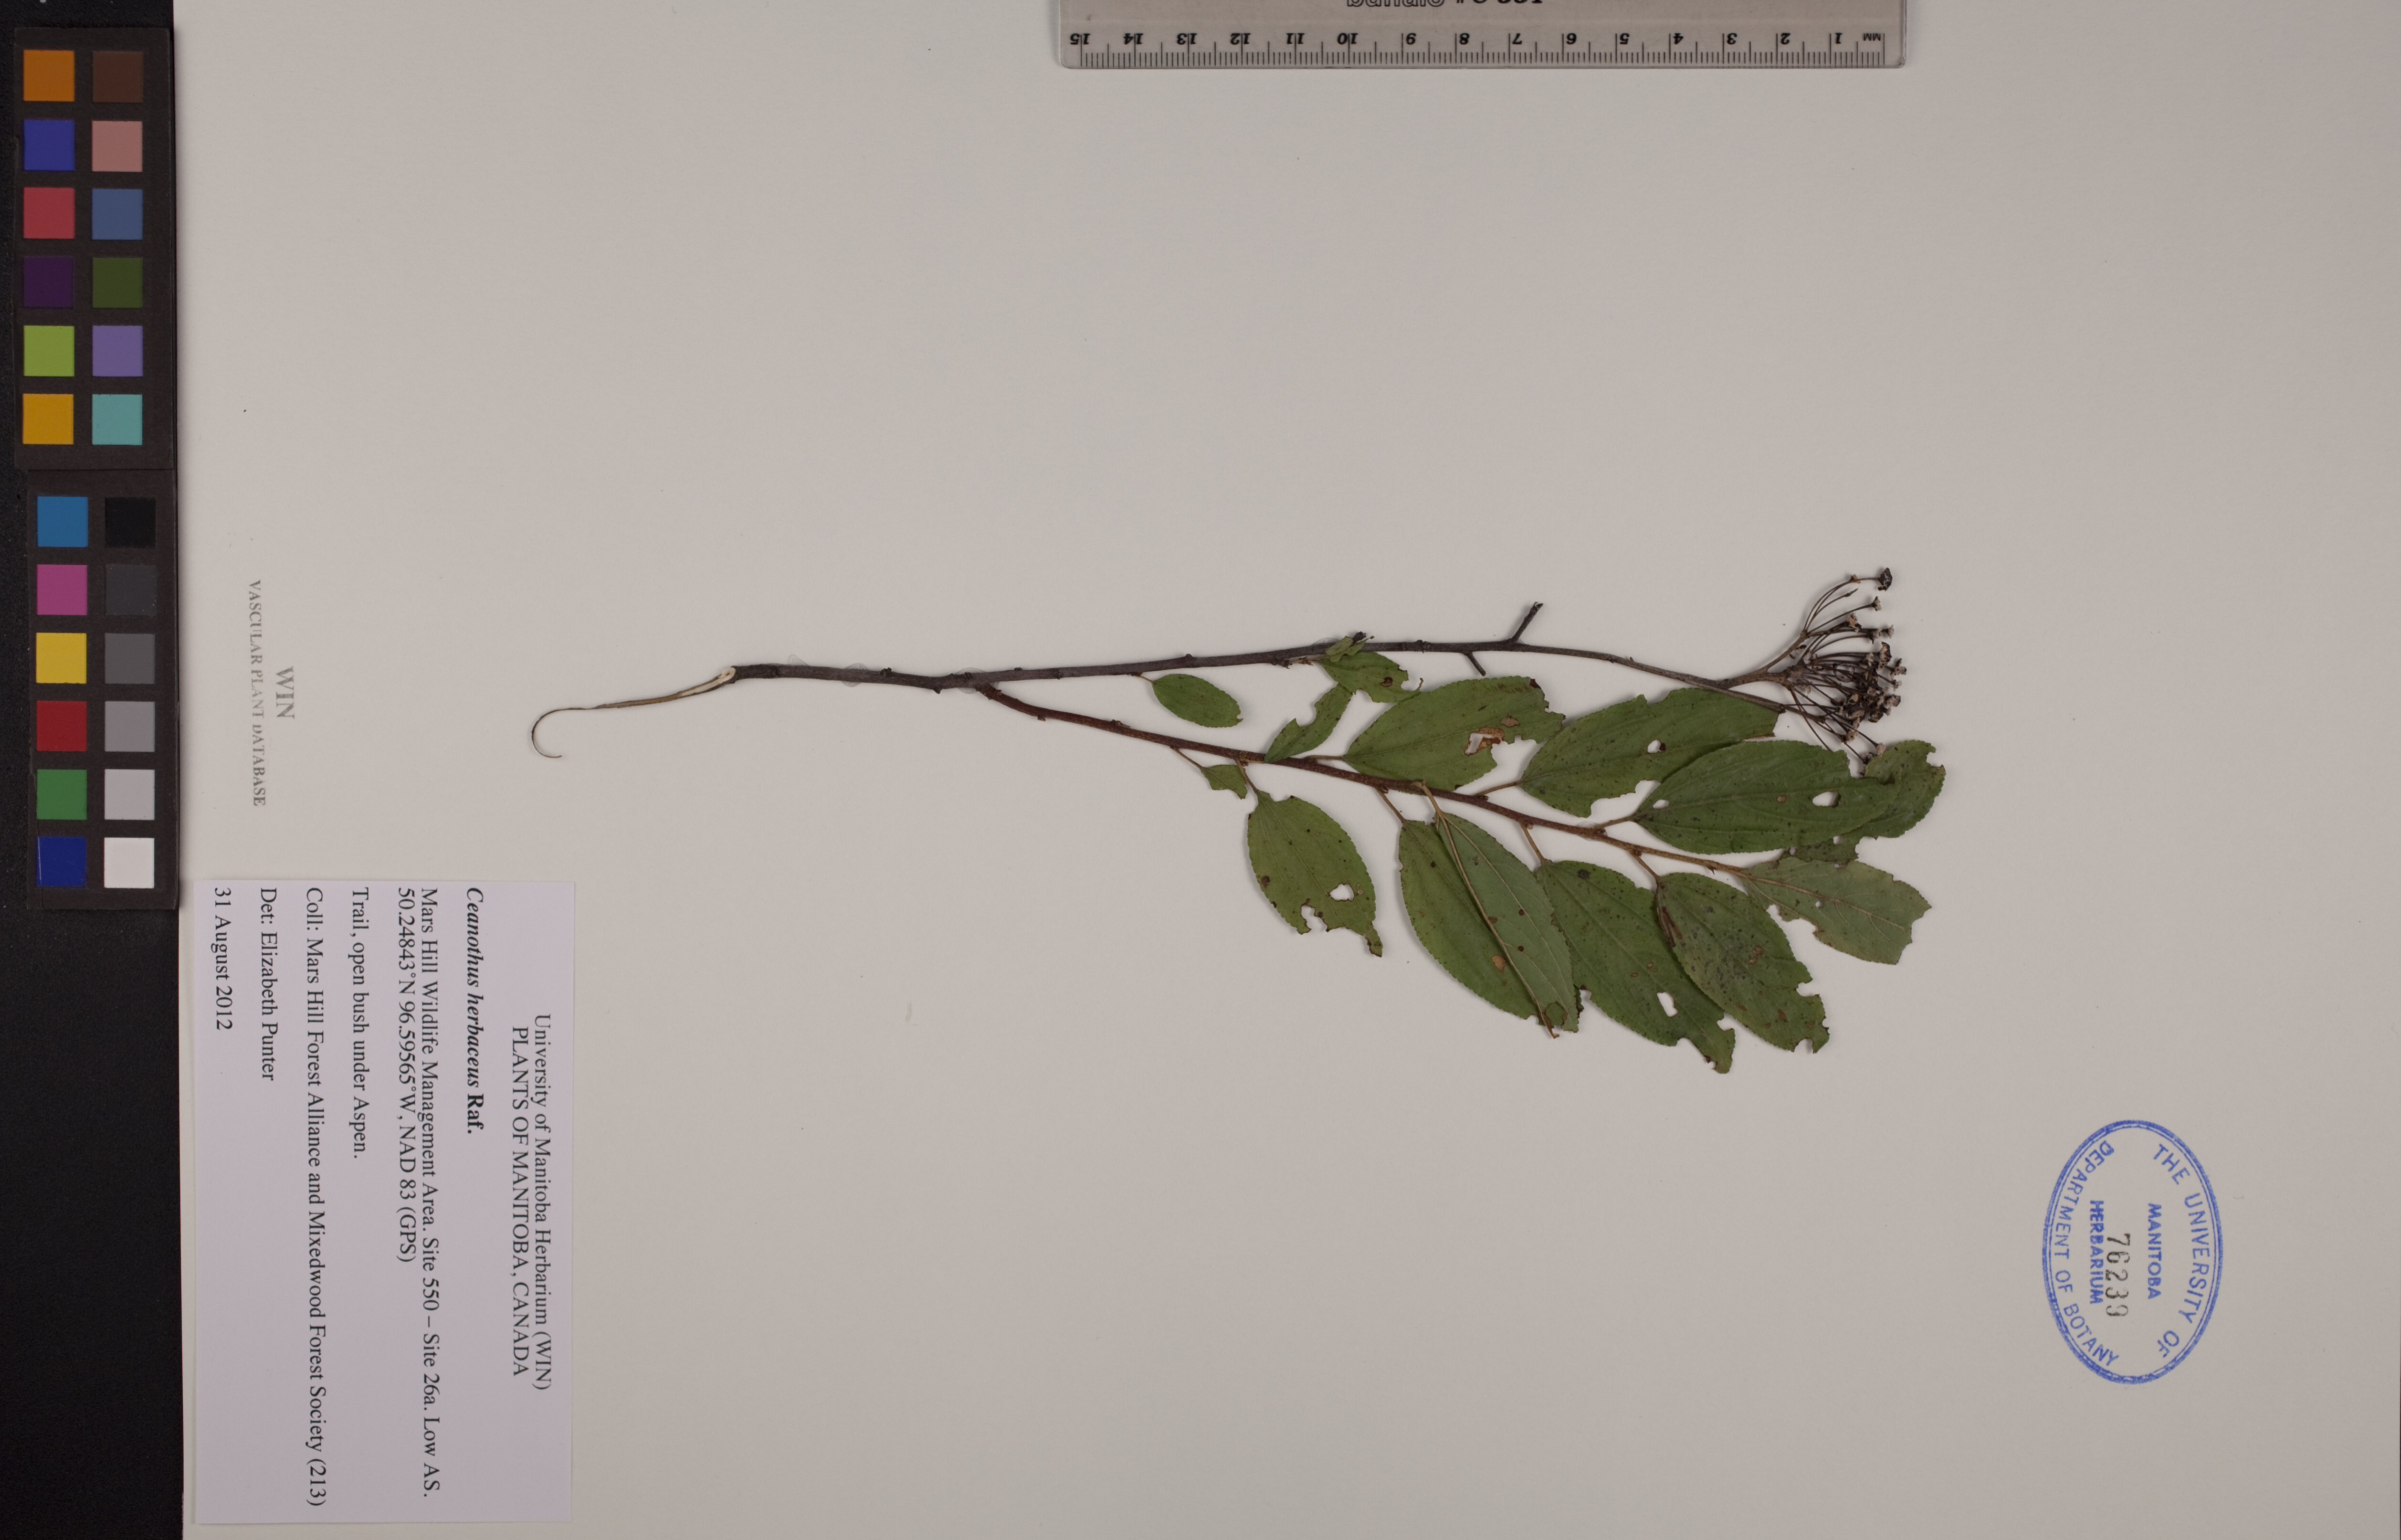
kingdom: Plantae
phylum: Tracheophyta
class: Magnoliopsida
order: Rosales
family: Rhamnaceae
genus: Ceanothus
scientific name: Ceanothus herbaceus
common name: Inland ceanothus
